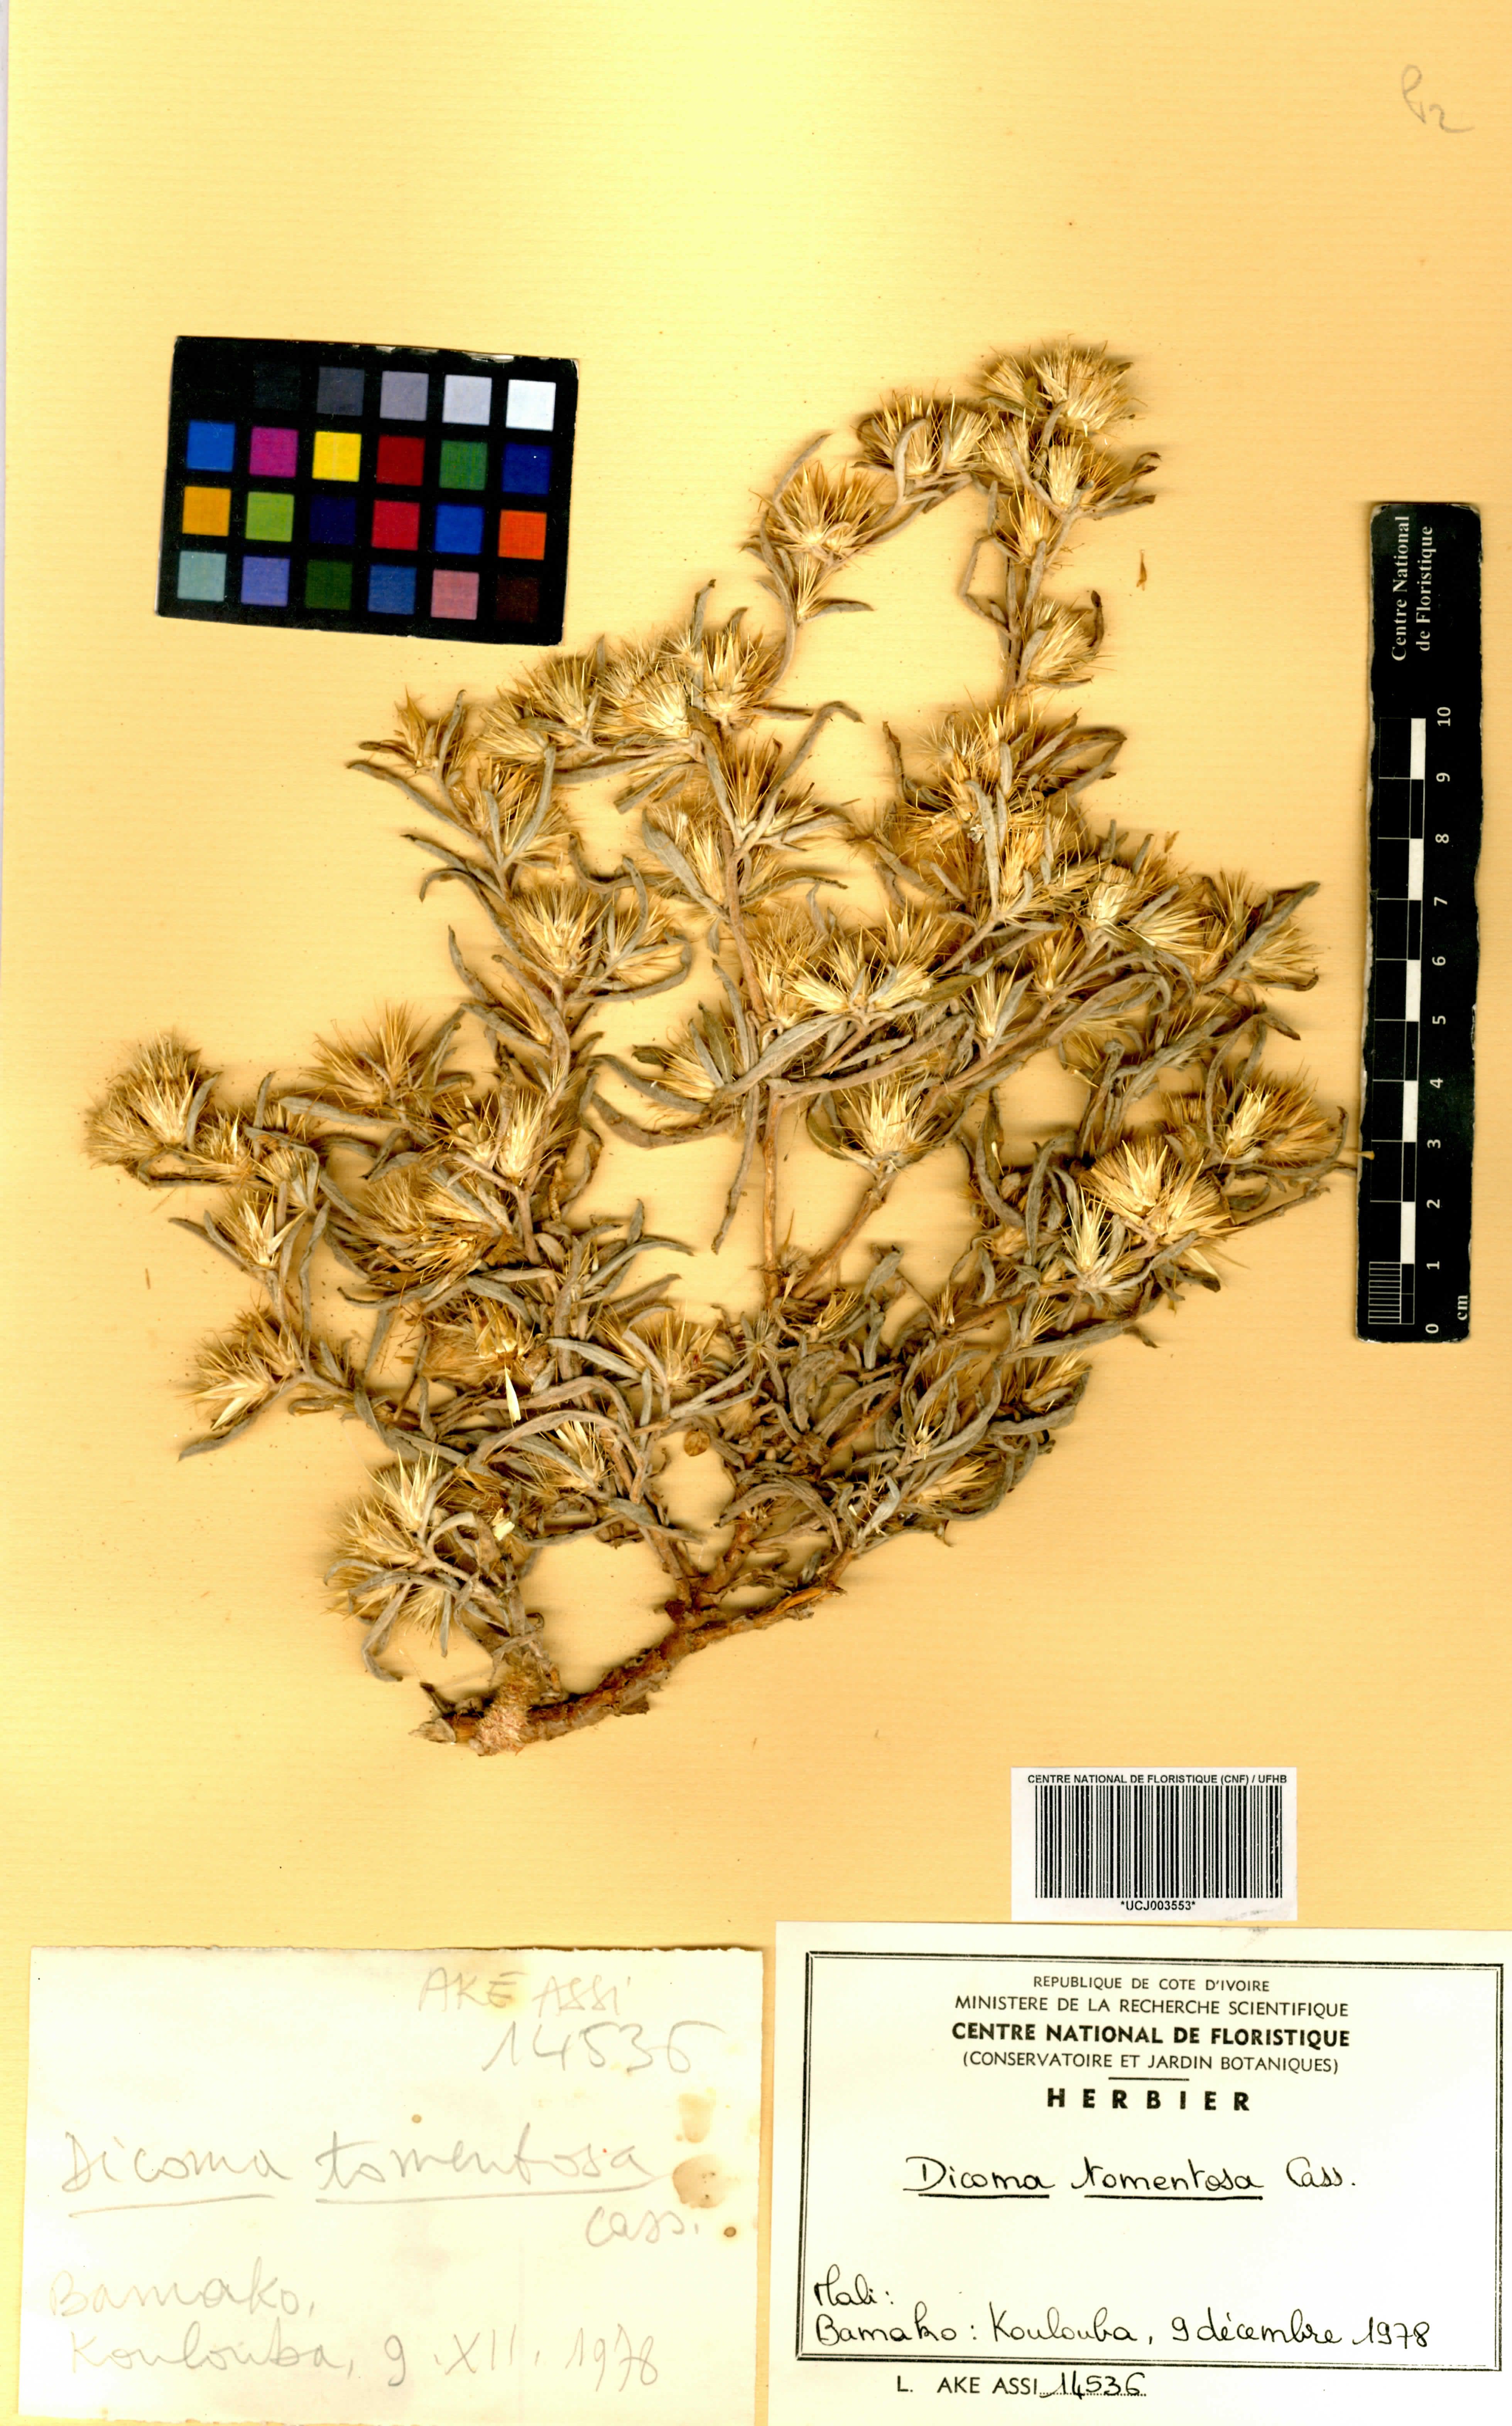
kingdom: Plantae
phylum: Tracheophyta
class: Magnoliopsida
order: Asterales
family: Asteraceae
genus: Dicoma
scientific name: Dicoma tomentosa
